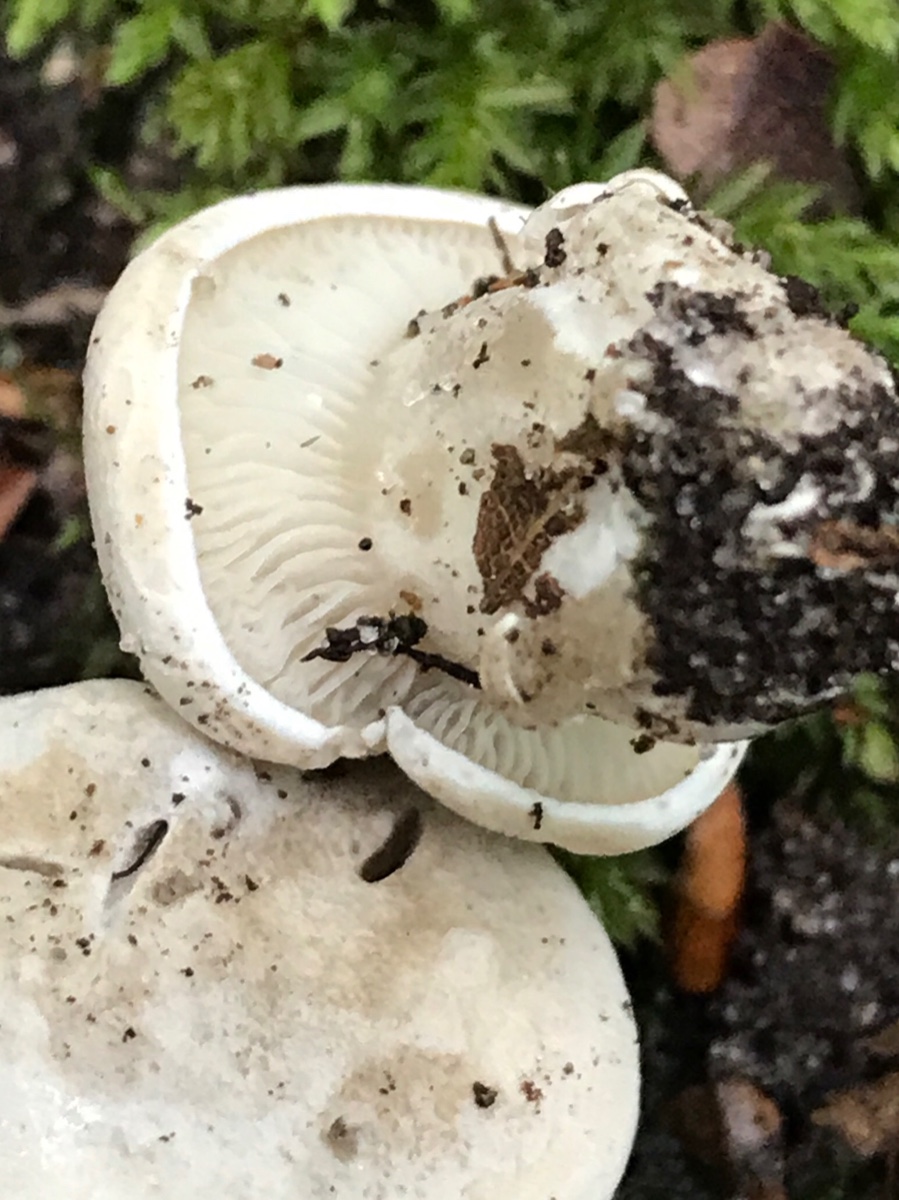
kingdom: Fungi
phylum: Basidiomycota
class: Agaricomycetes
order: Agaricales
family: Entolomataceae
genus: Clitopilus
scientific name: Clitopilus prunulus
